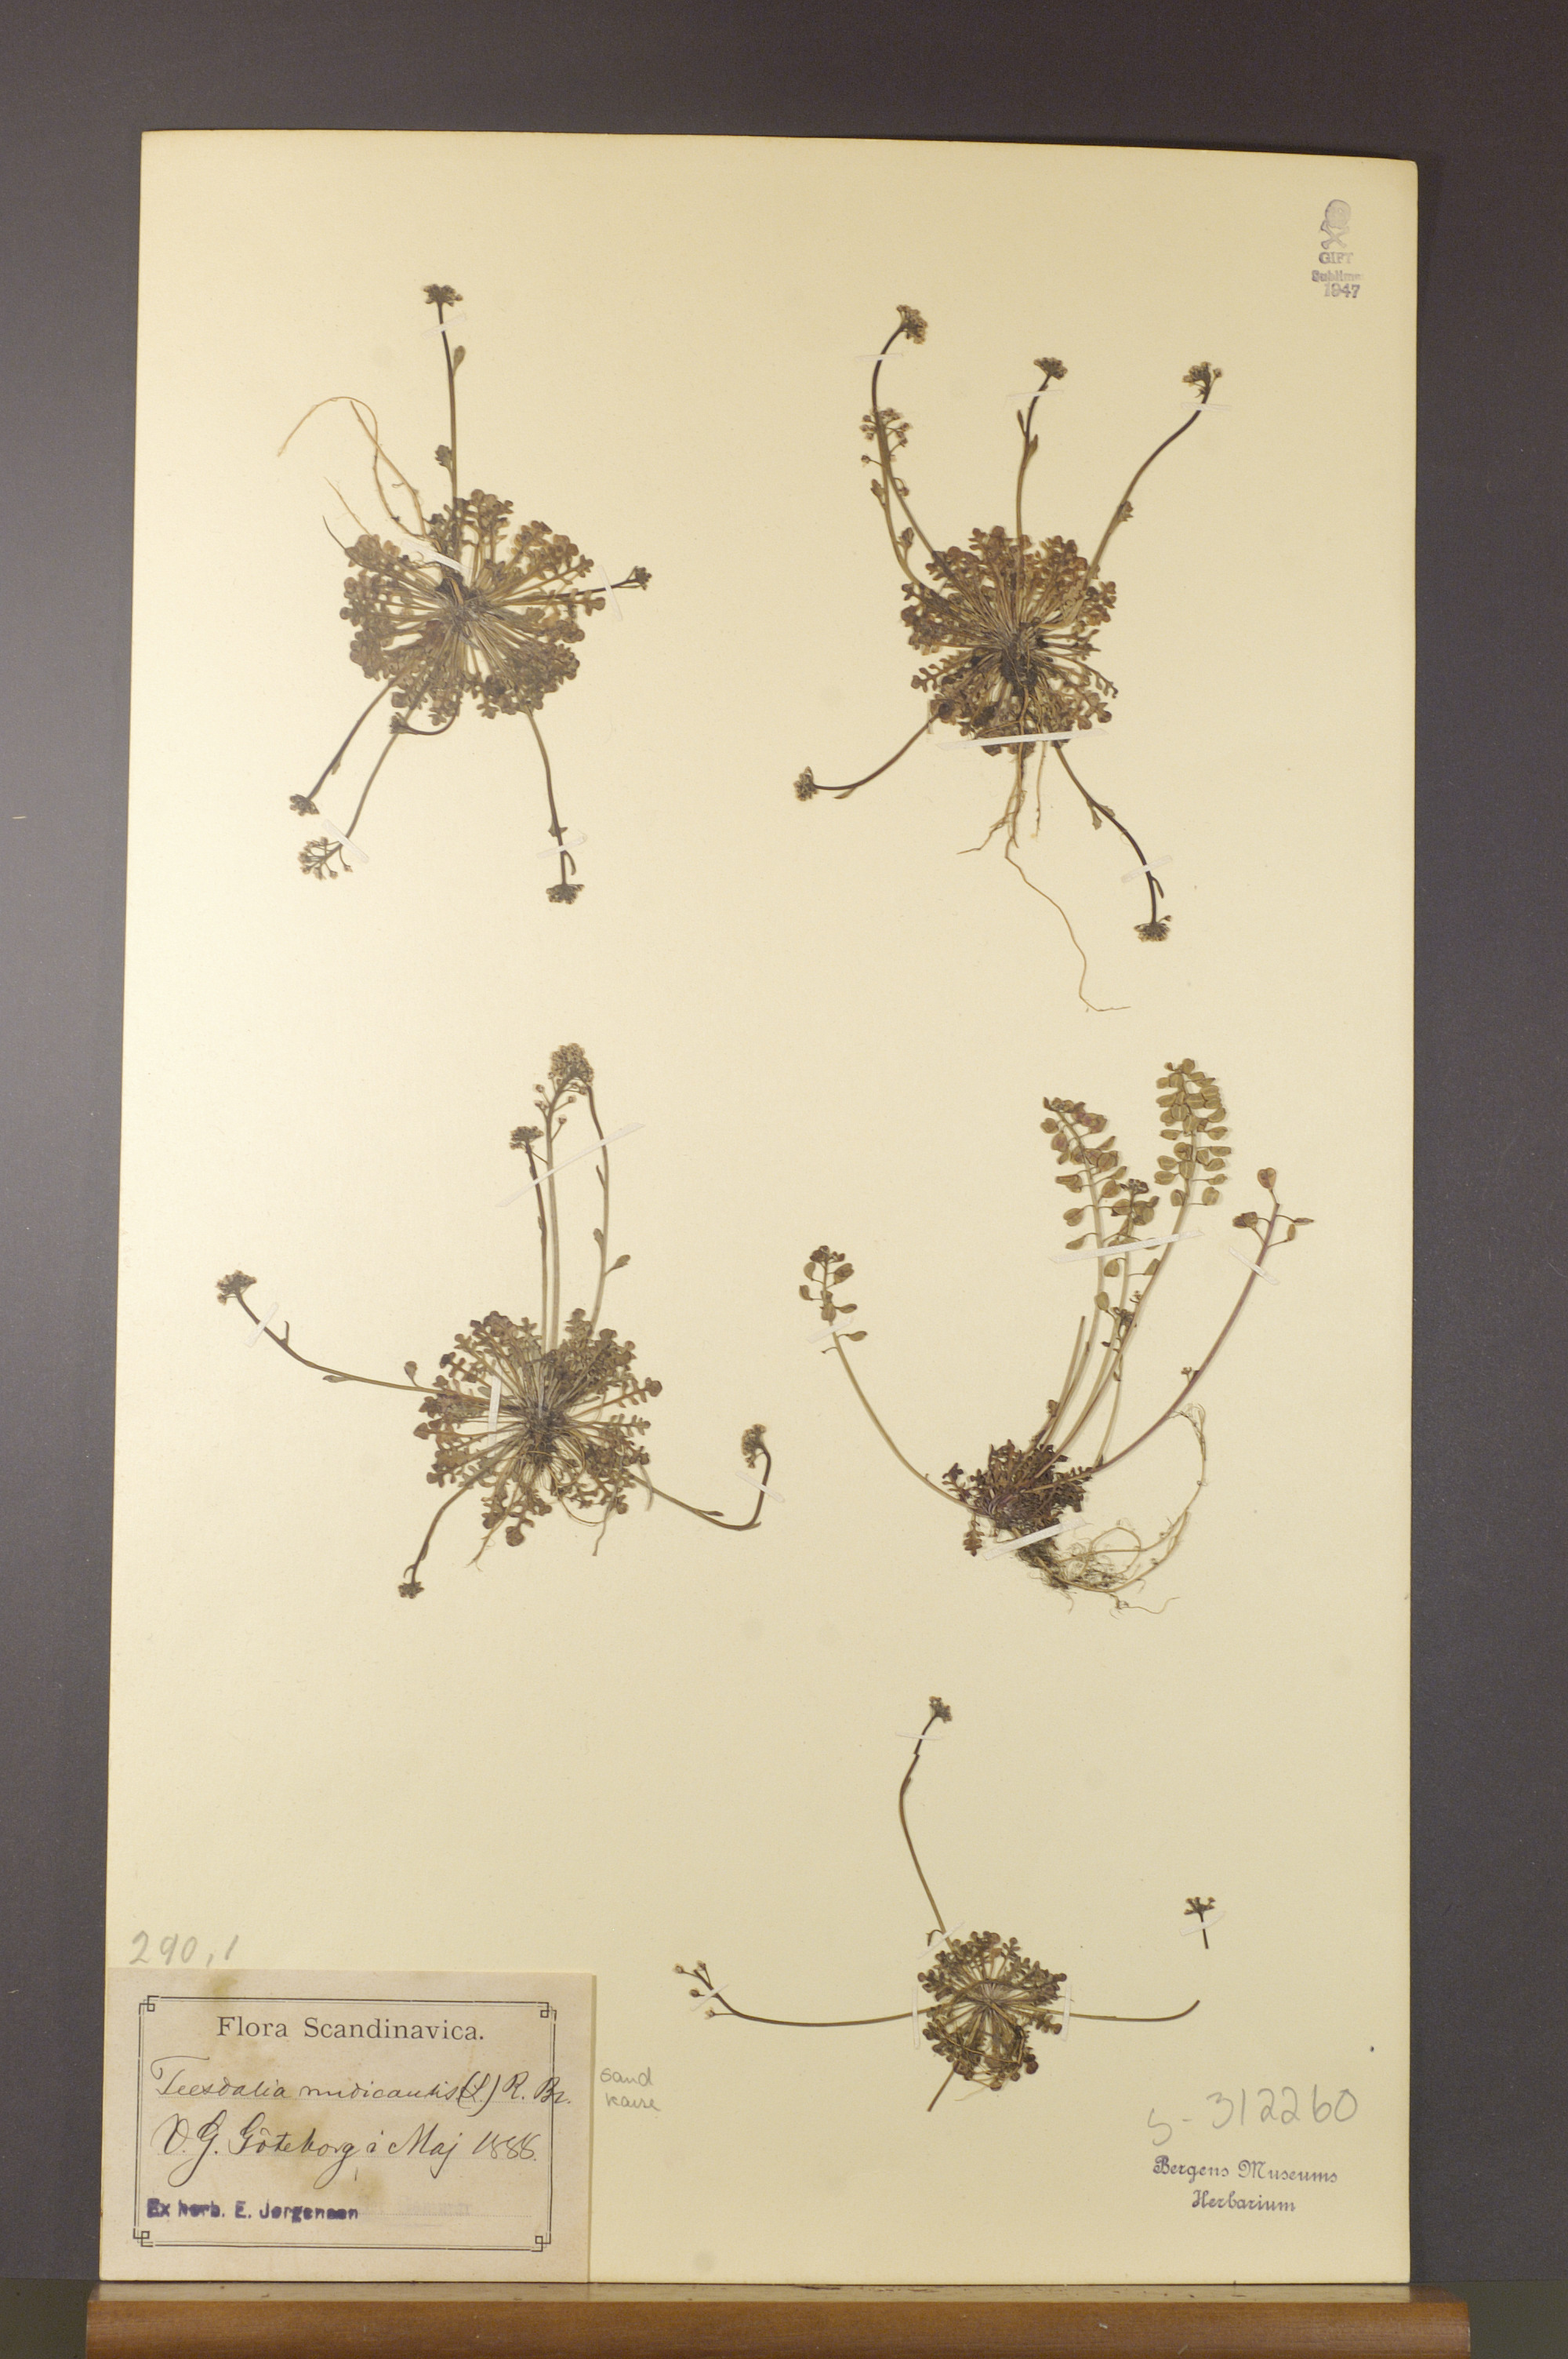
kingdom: Plantae
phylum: Tracheophyta
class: Magnoliopsida
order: Brassicales
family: Brassicaceae
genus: Teesdalia
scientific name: Teesdalia nudicaulis
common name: Shepherd's cress
